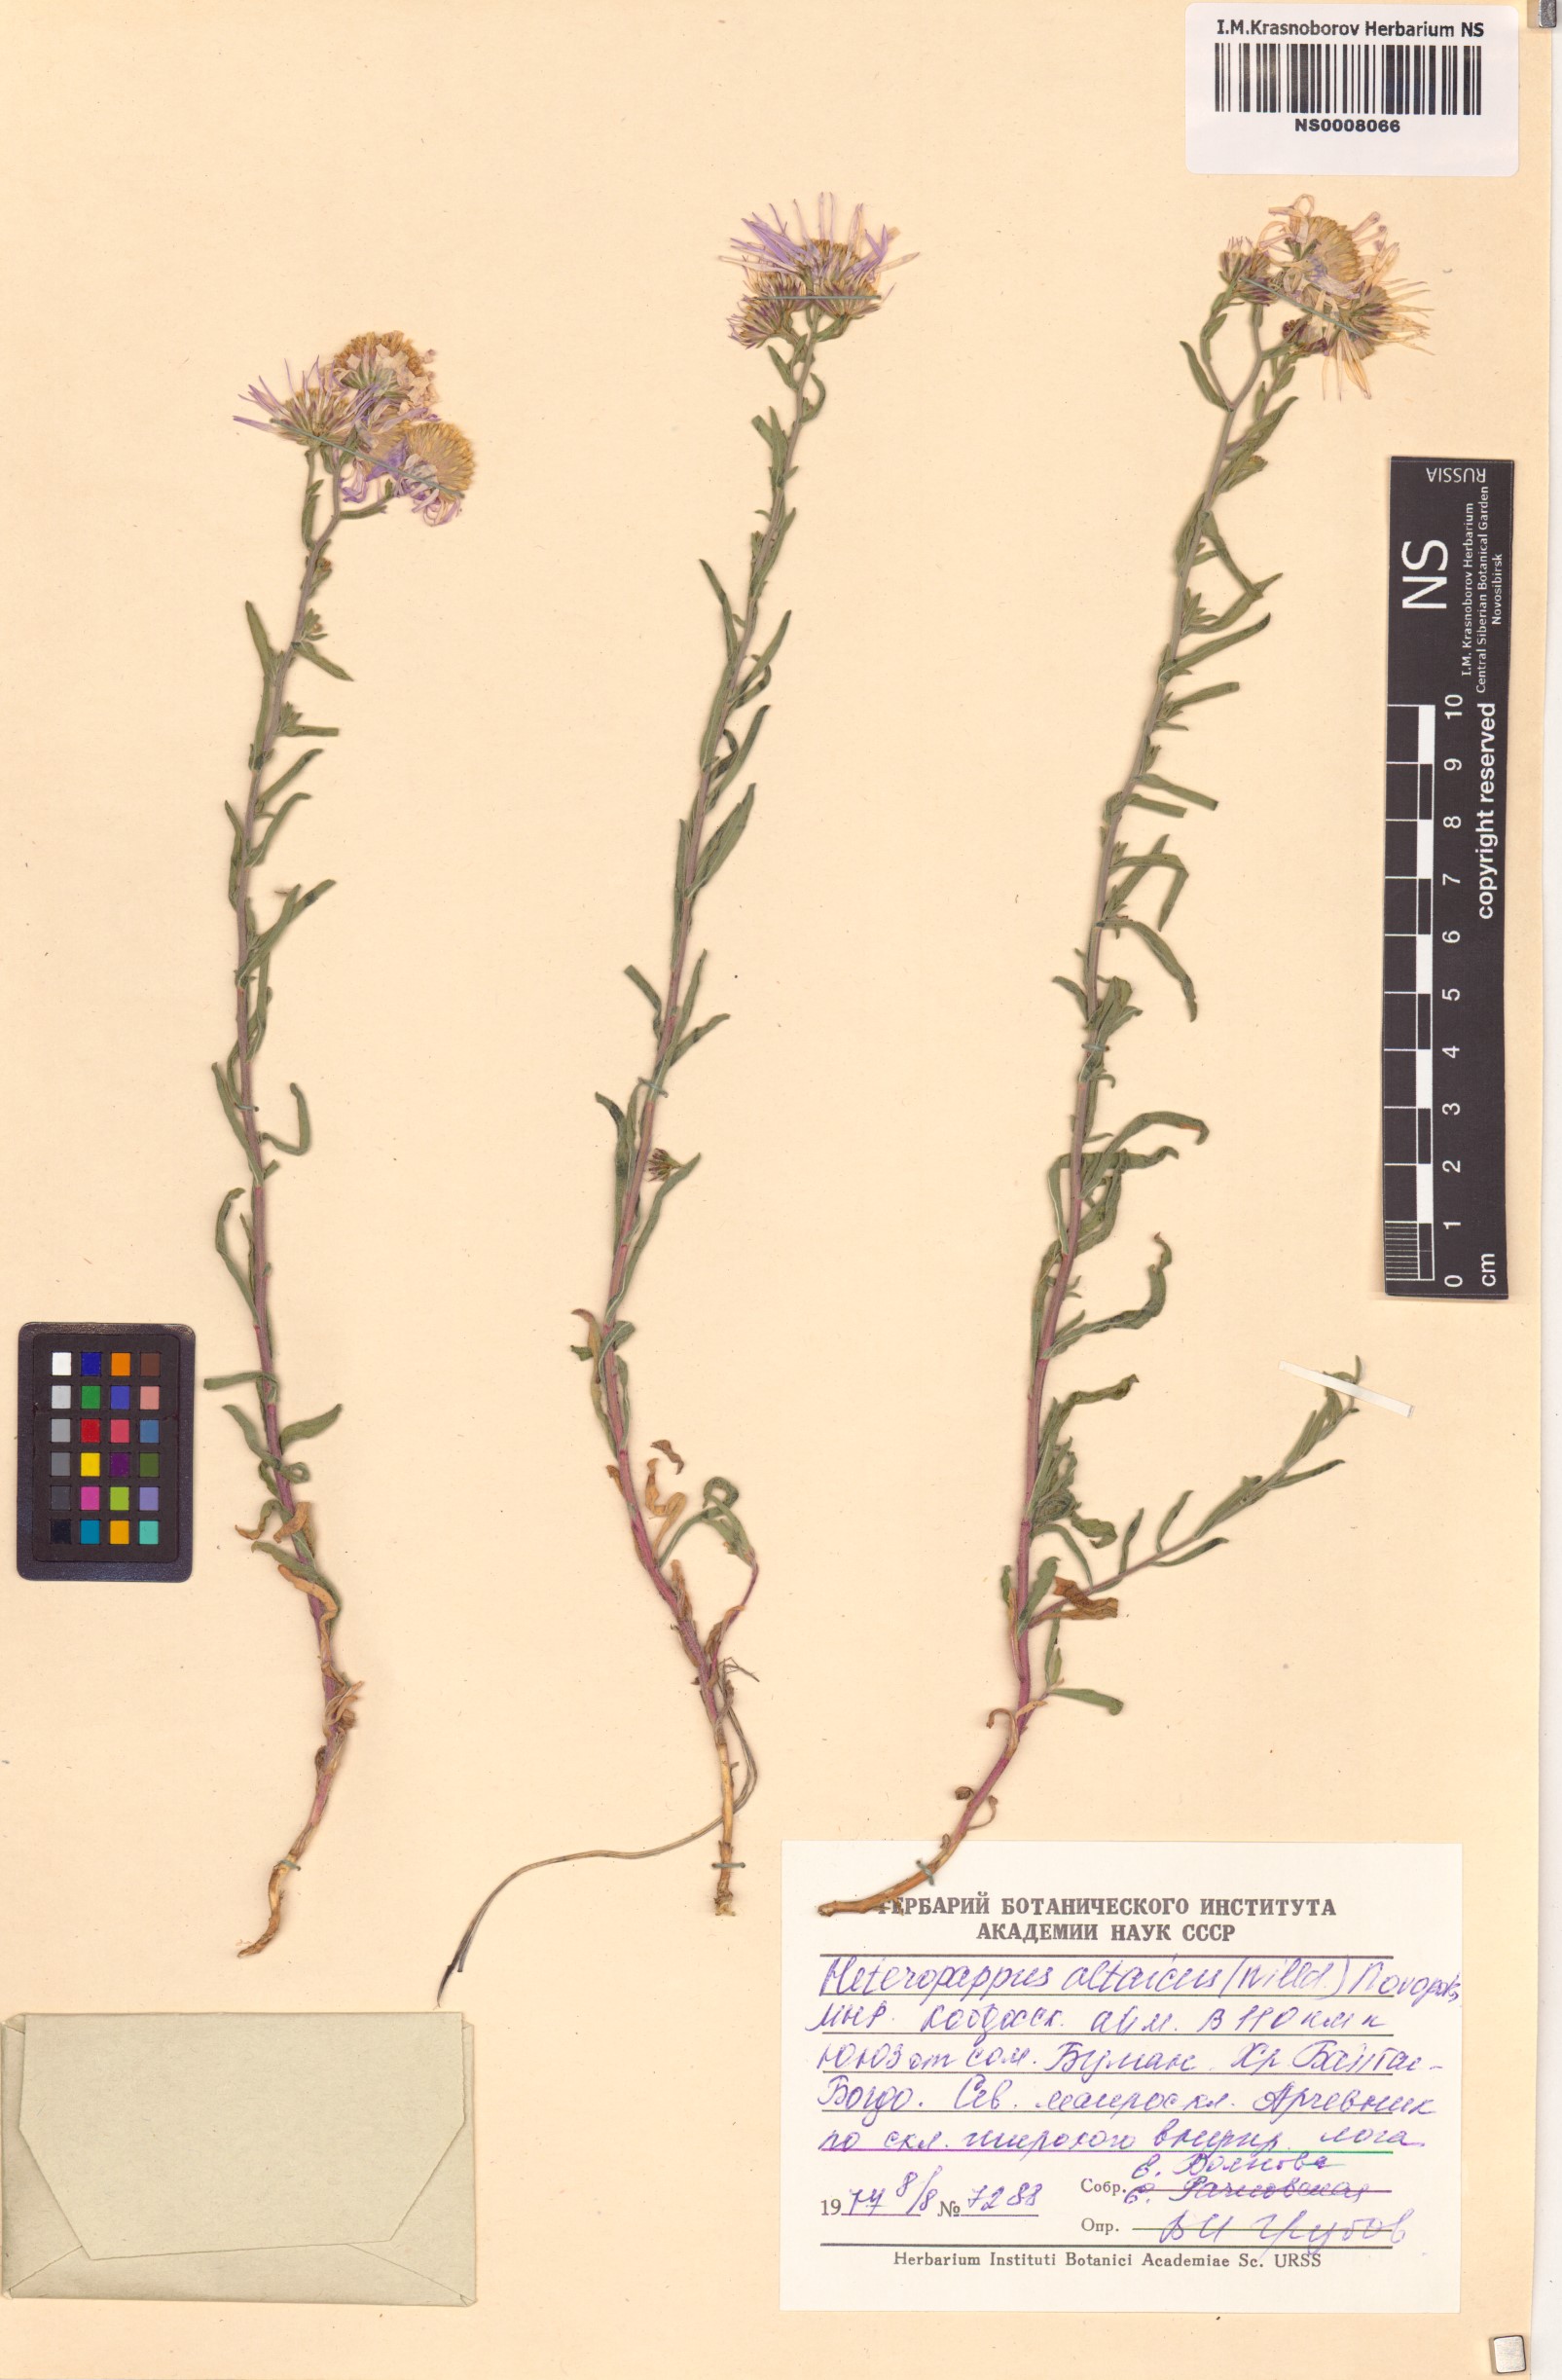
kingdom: Plantae
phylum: Tracheophyta
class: Magnoliopsida
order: Asterales
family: Asteraceae
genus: Heteropappus
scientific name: Heteropappus altaicus
